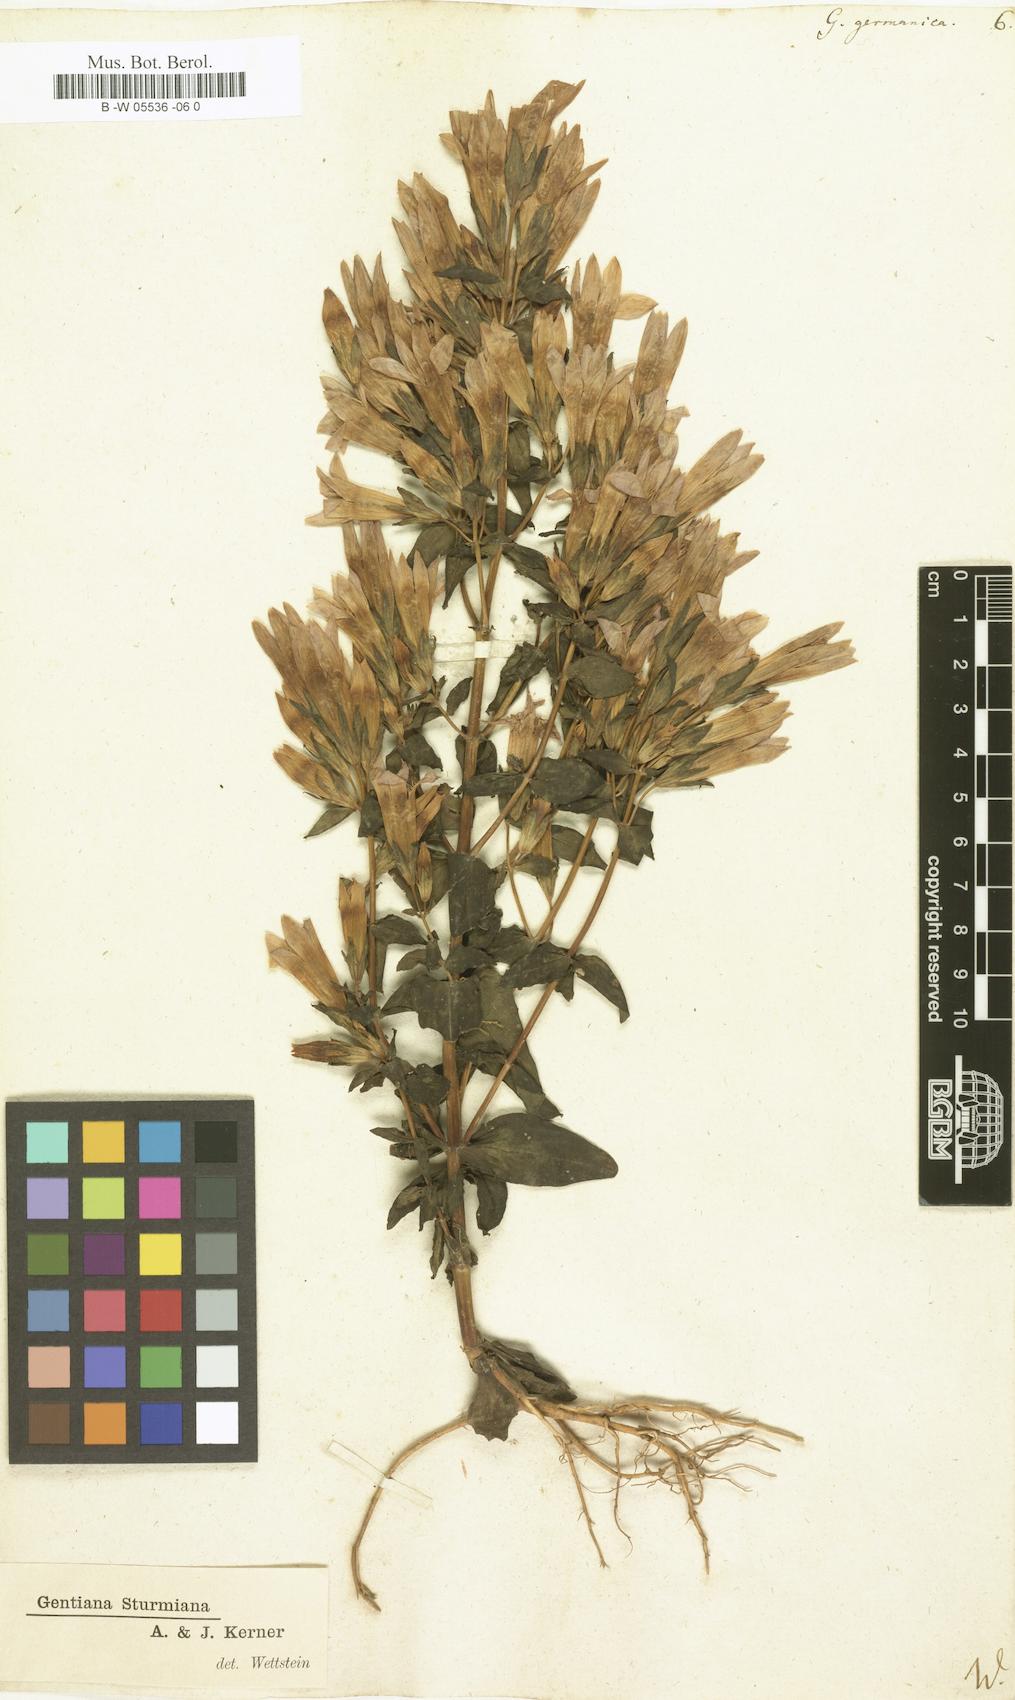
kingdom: Plantae
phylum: Tracheophyta
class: Magnoliopsida
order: Gentianales
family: Gentianaceae
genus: Gentianella
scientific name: Gentianella
